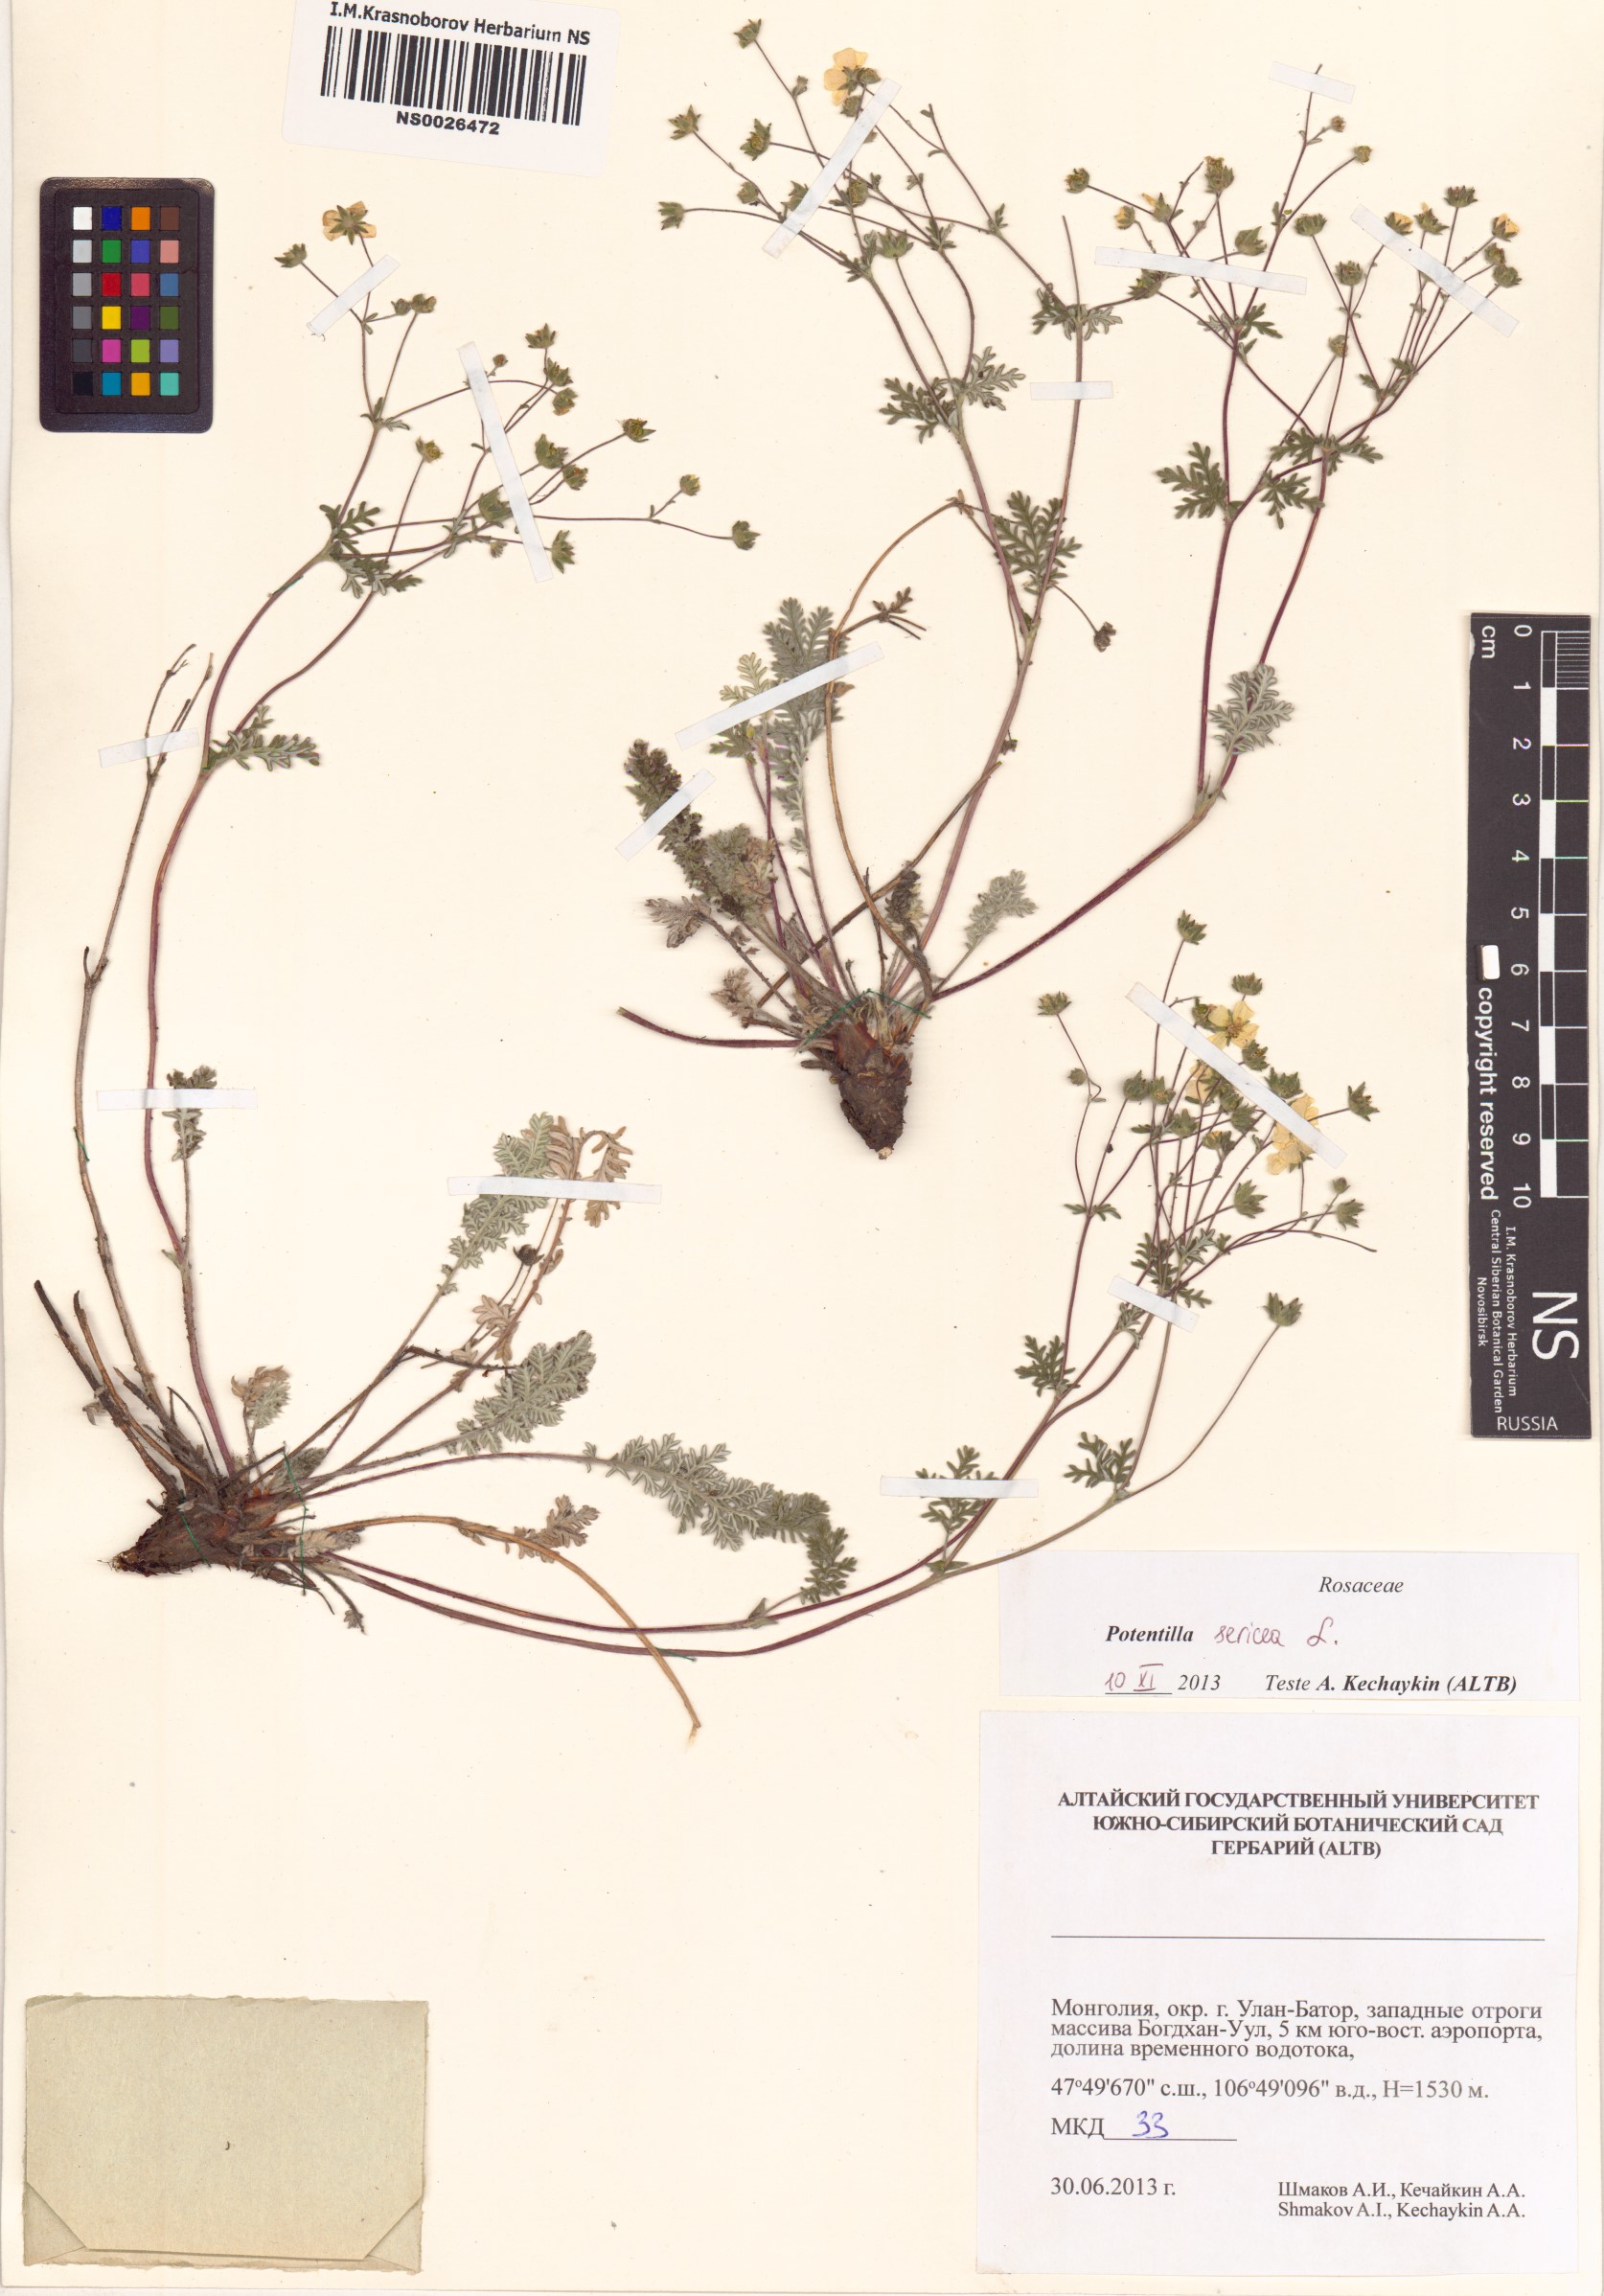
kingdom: Plantae
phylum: Tracheophyta
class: Magnoliopsida
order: Rosales
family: Rosaceae
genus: Potentilla
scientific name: Potentilla sericea
